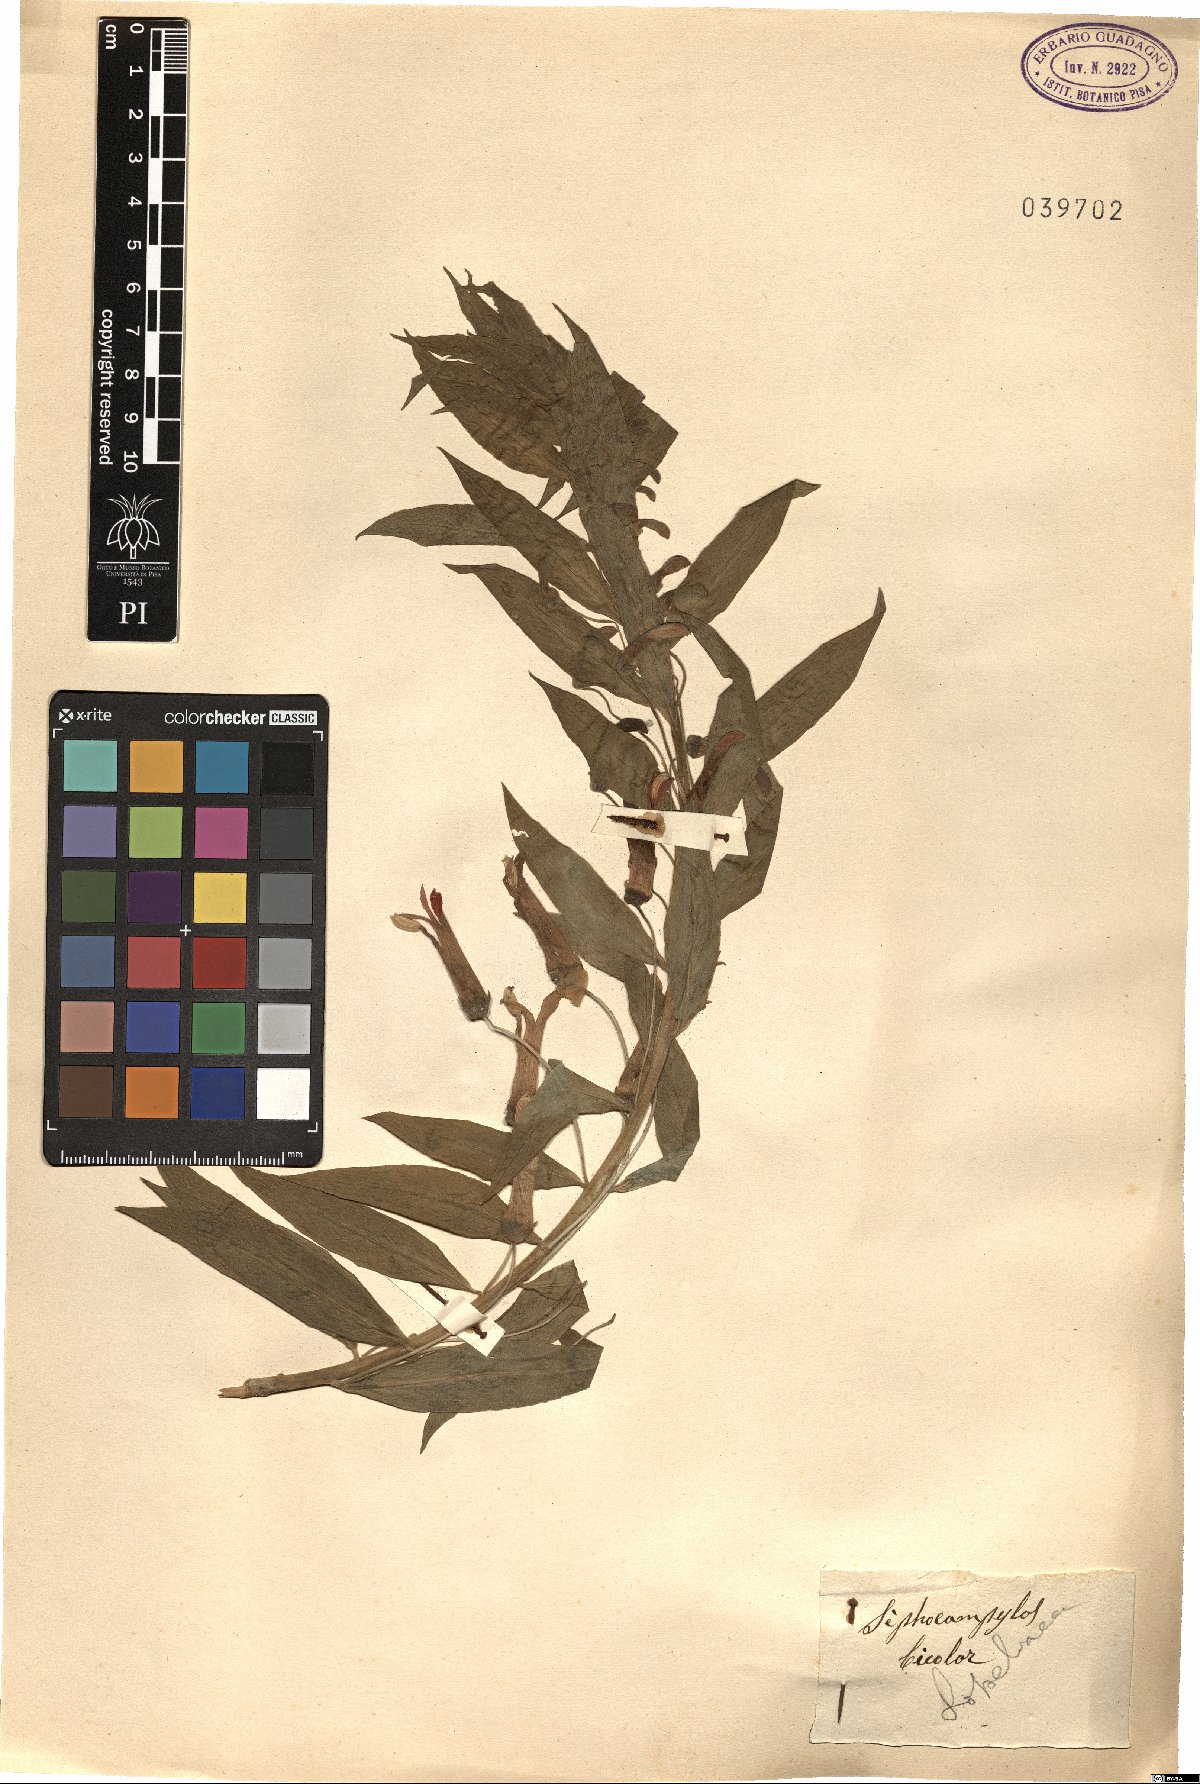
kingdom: Plantae
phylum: Tracheophyta
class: Magnoliopsida
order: Asterales
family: Campanulaceae
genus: Siphocampylus
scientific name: Siphocampylus bicolor
